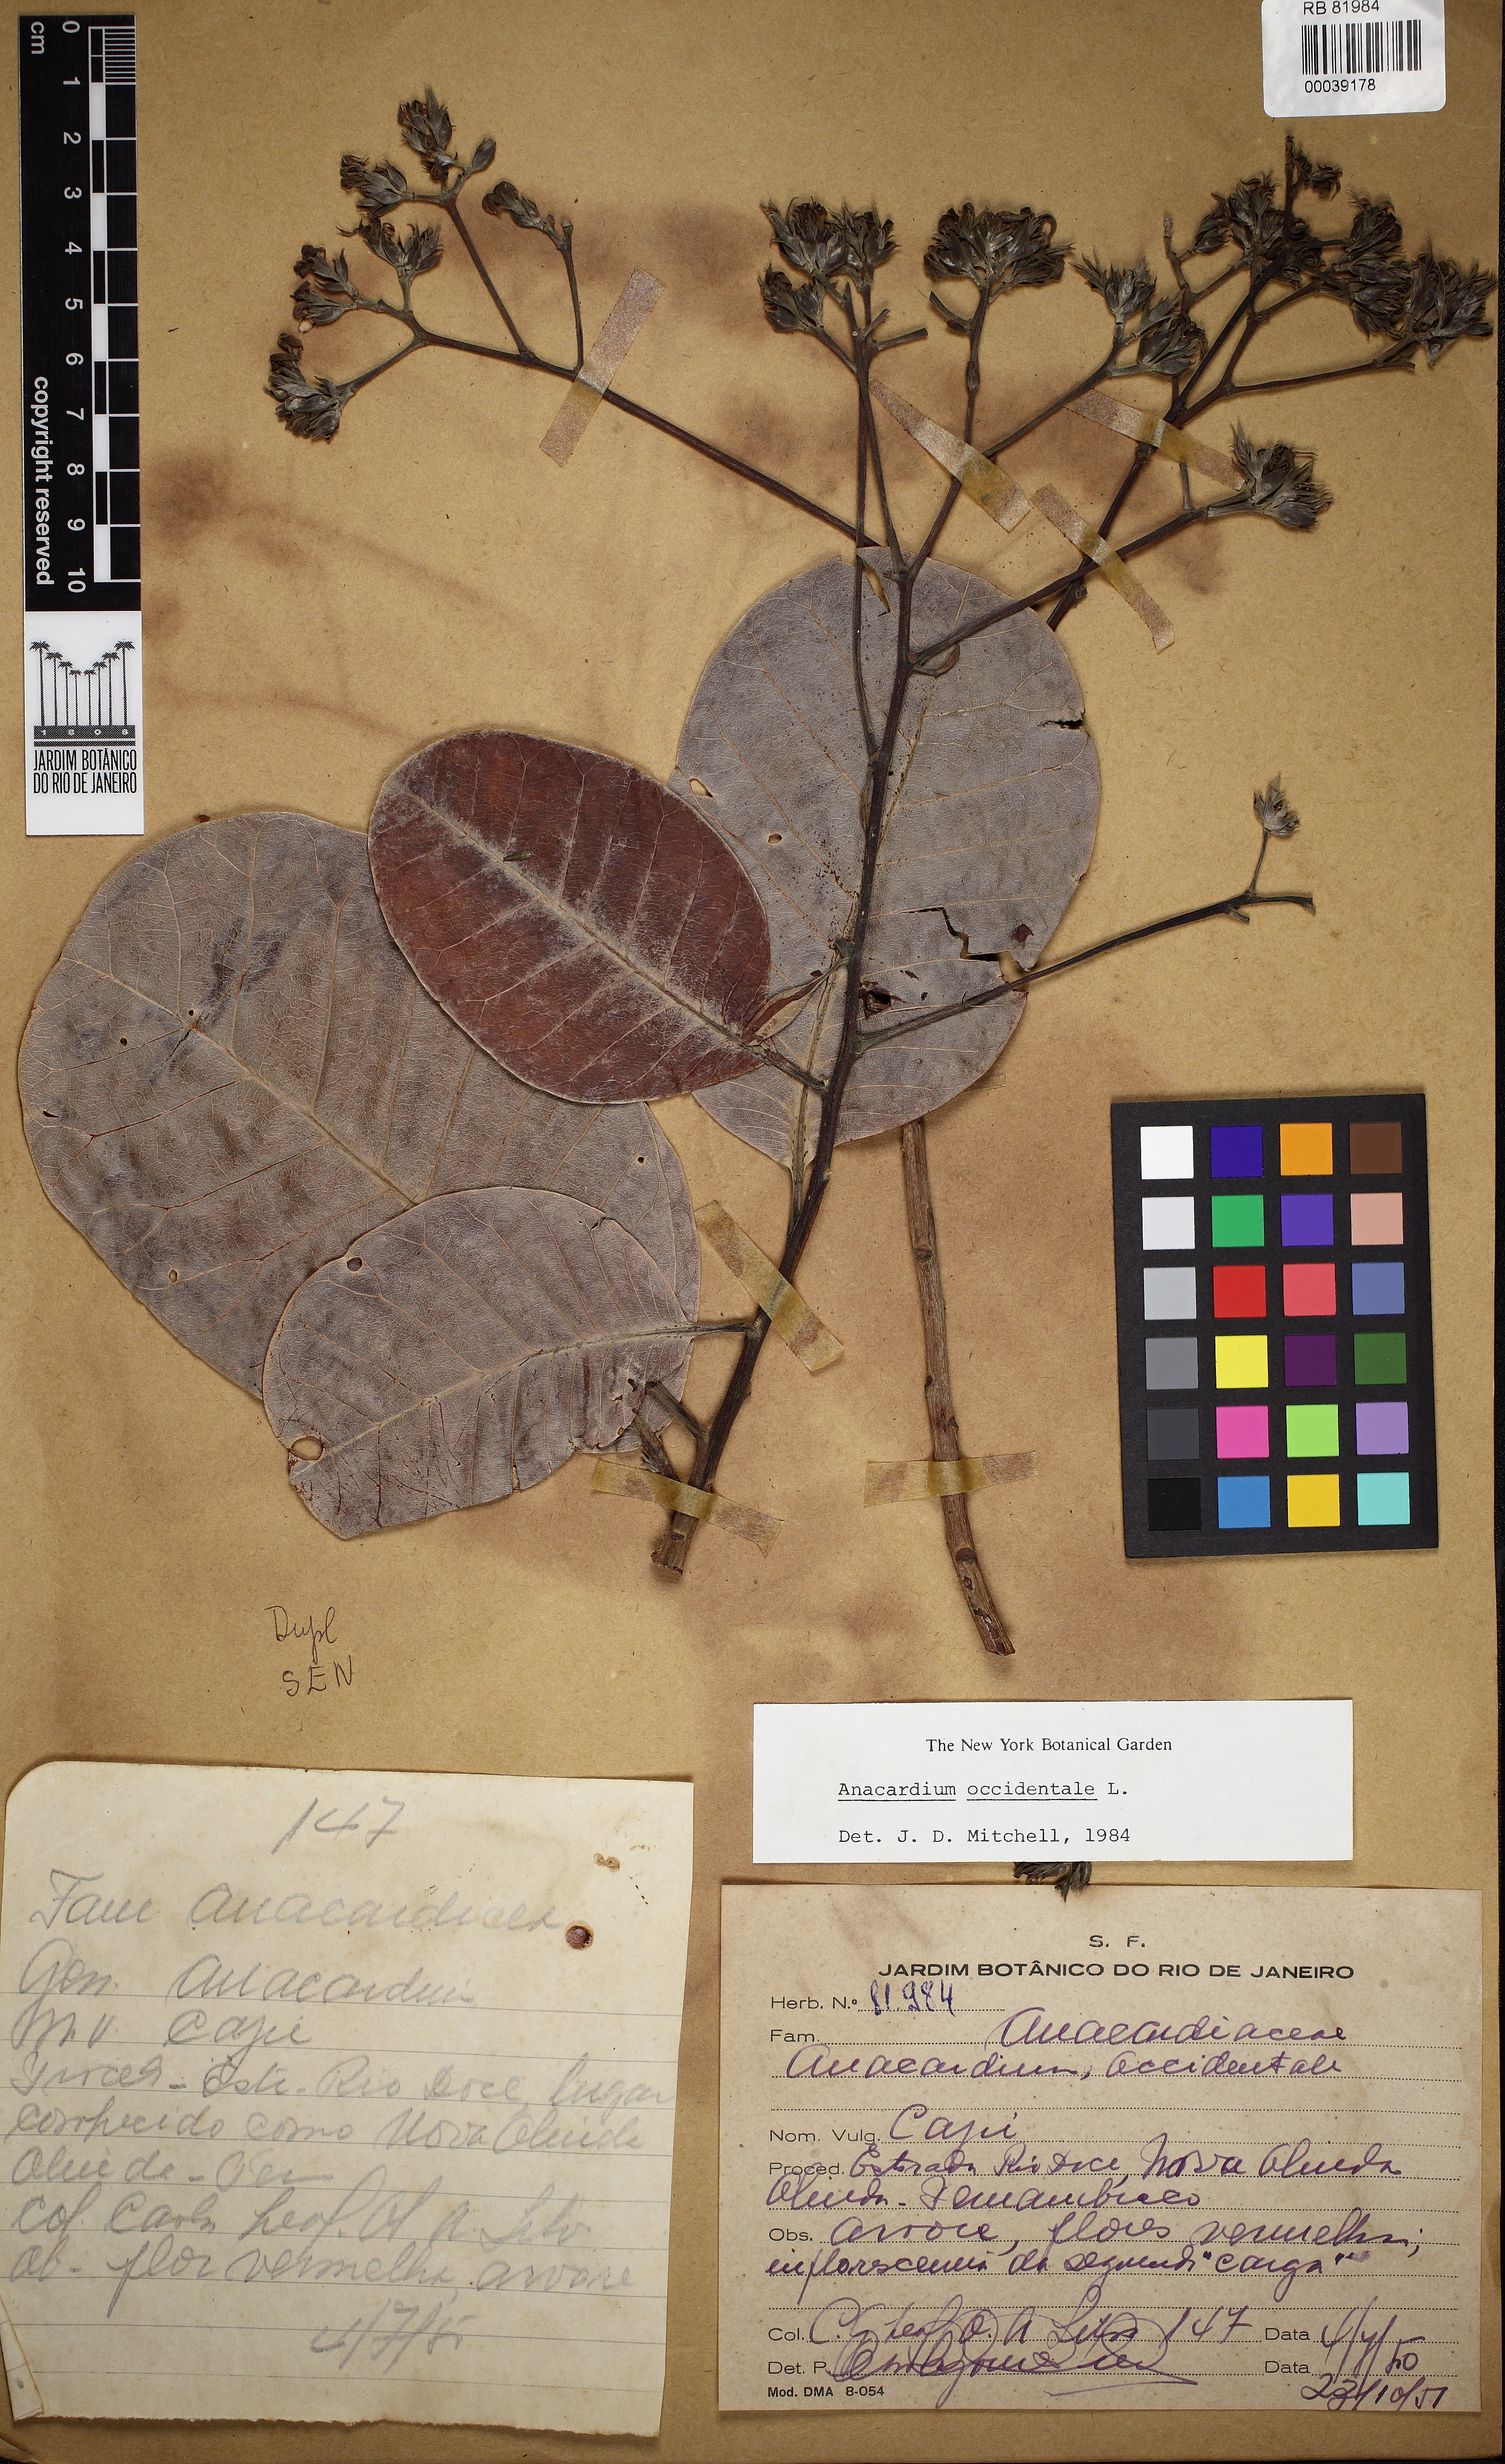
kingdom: Plantae
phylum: Tracheophyta
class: Magnoliopsida
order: Sapindales
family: Anacardiaceae
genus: Anacardium
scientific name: Anacardium occidentale
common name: Cashew
